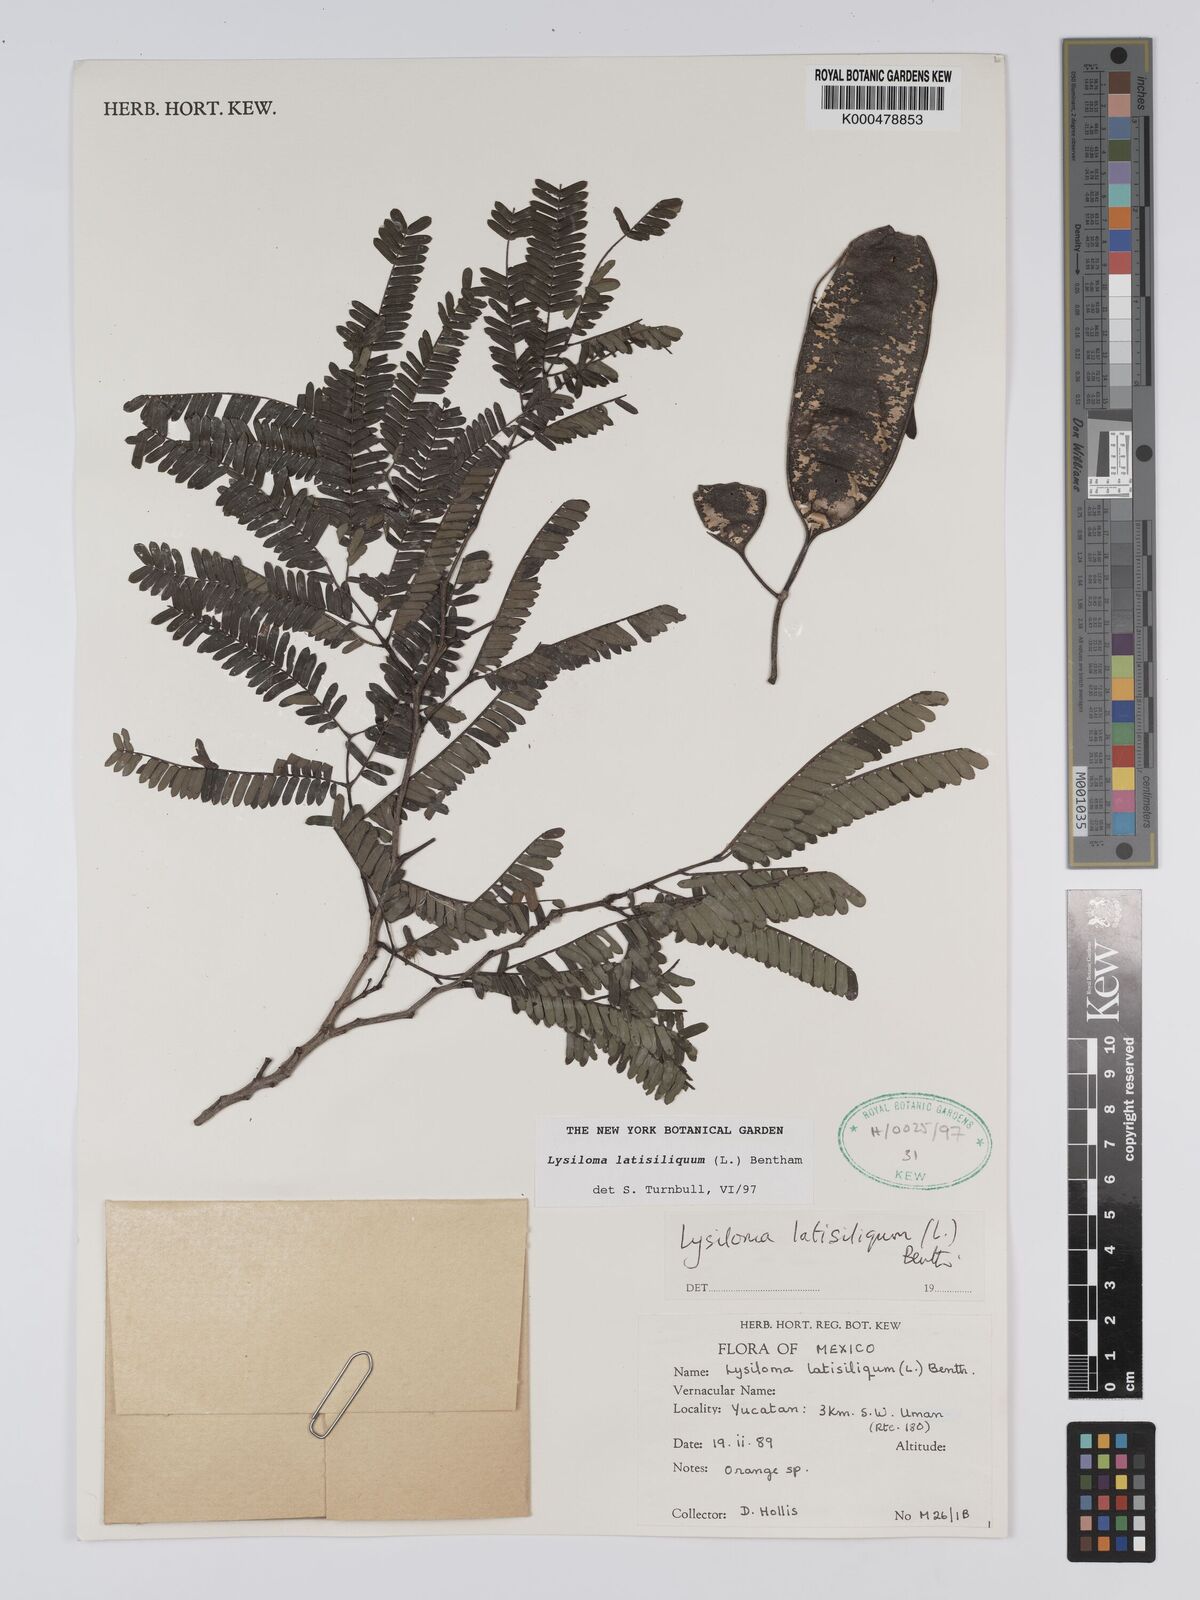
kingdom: Plantae
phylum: Tracheophyta
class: Magnoliopsida
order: Fabales
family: Fabaceae
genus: Lysiloma
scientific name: Lysiloma latisiliquum
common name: Wild tamarind
